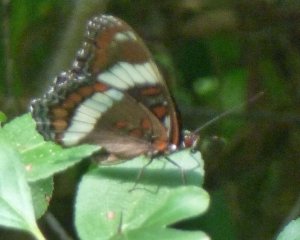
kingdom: Animalia
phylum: Arthropoda
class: Insecta
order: Lepidoptera
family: Nymphalidae
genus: Limenitis
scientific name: Limenitis arthemis
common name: Red-spotted Admiral
